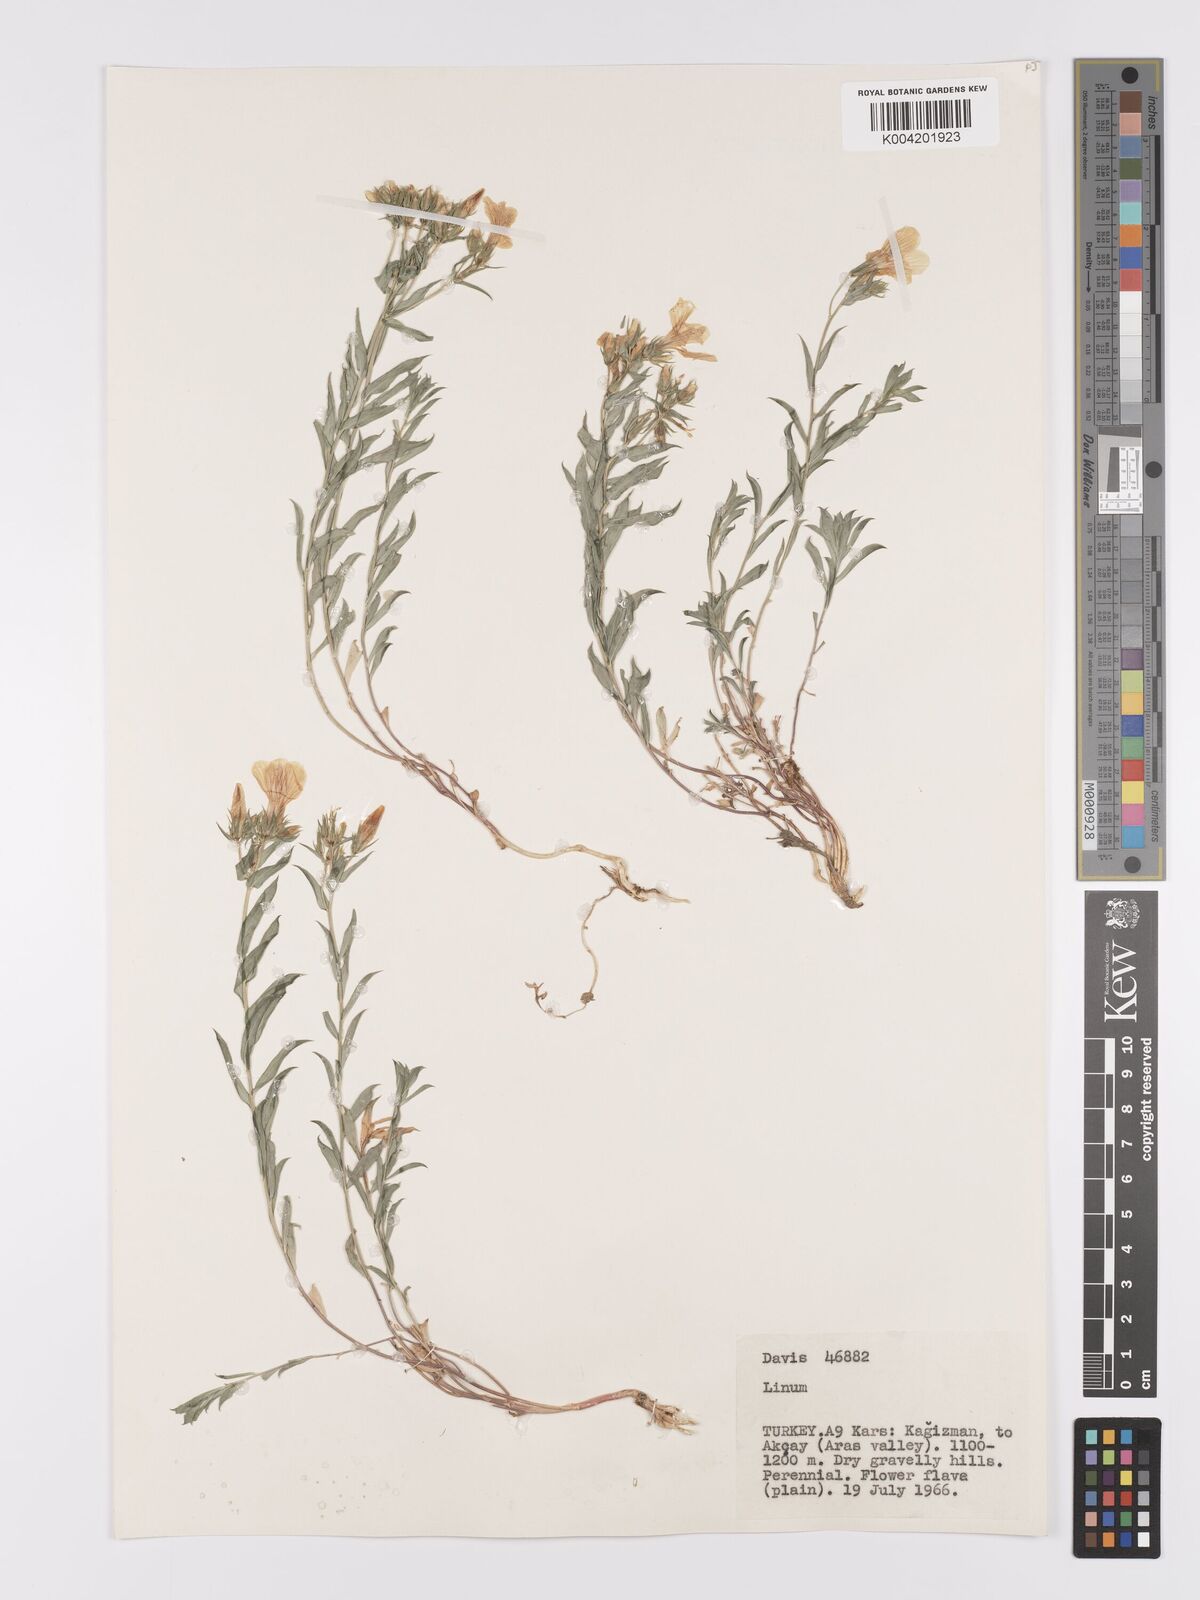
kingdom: Plantae
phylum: Tracheophyta
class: Magnoliopsida
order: Malpighiales
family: Linaceae
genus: Linum
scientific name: Linum
